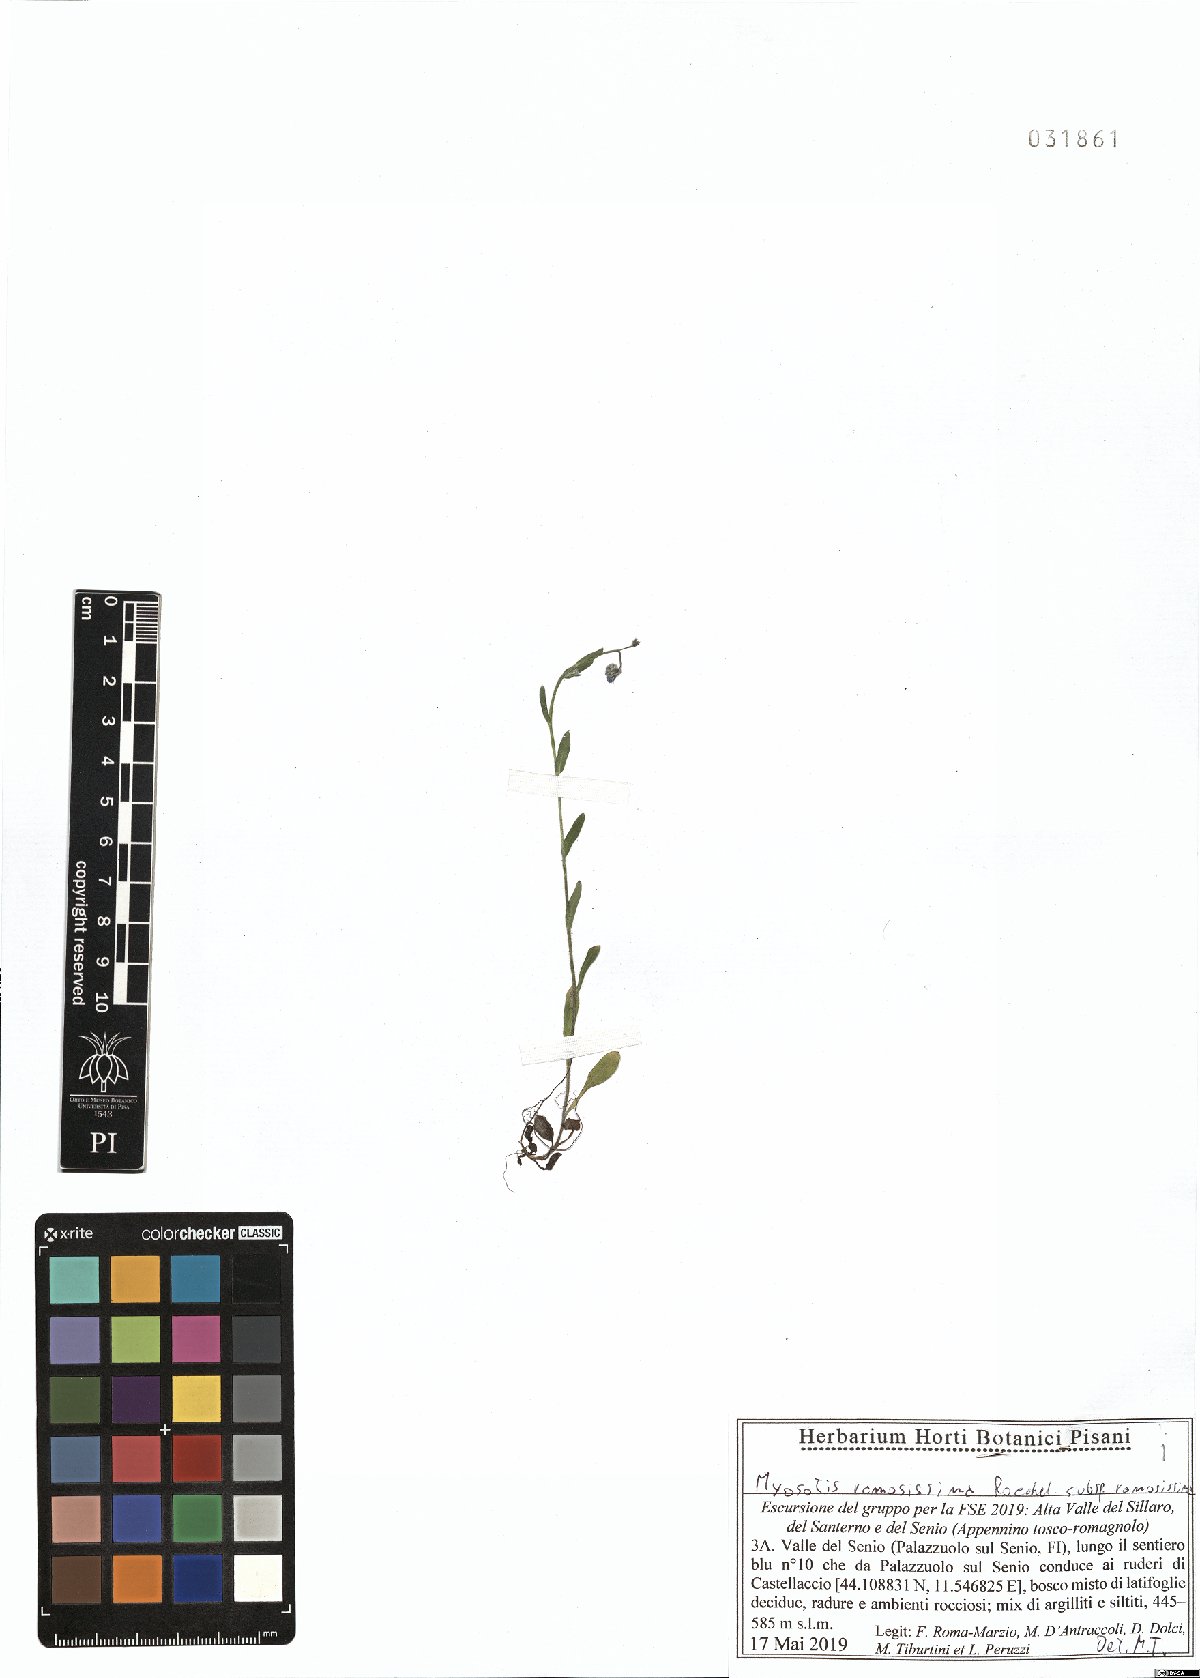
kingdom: Plantae
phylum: Tracheophyta
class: Magnoliopsida
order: Boraginales
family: Boraginaceae
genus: Myosotis
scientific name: Myosotis ramosissima
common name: Early forget-me-not
